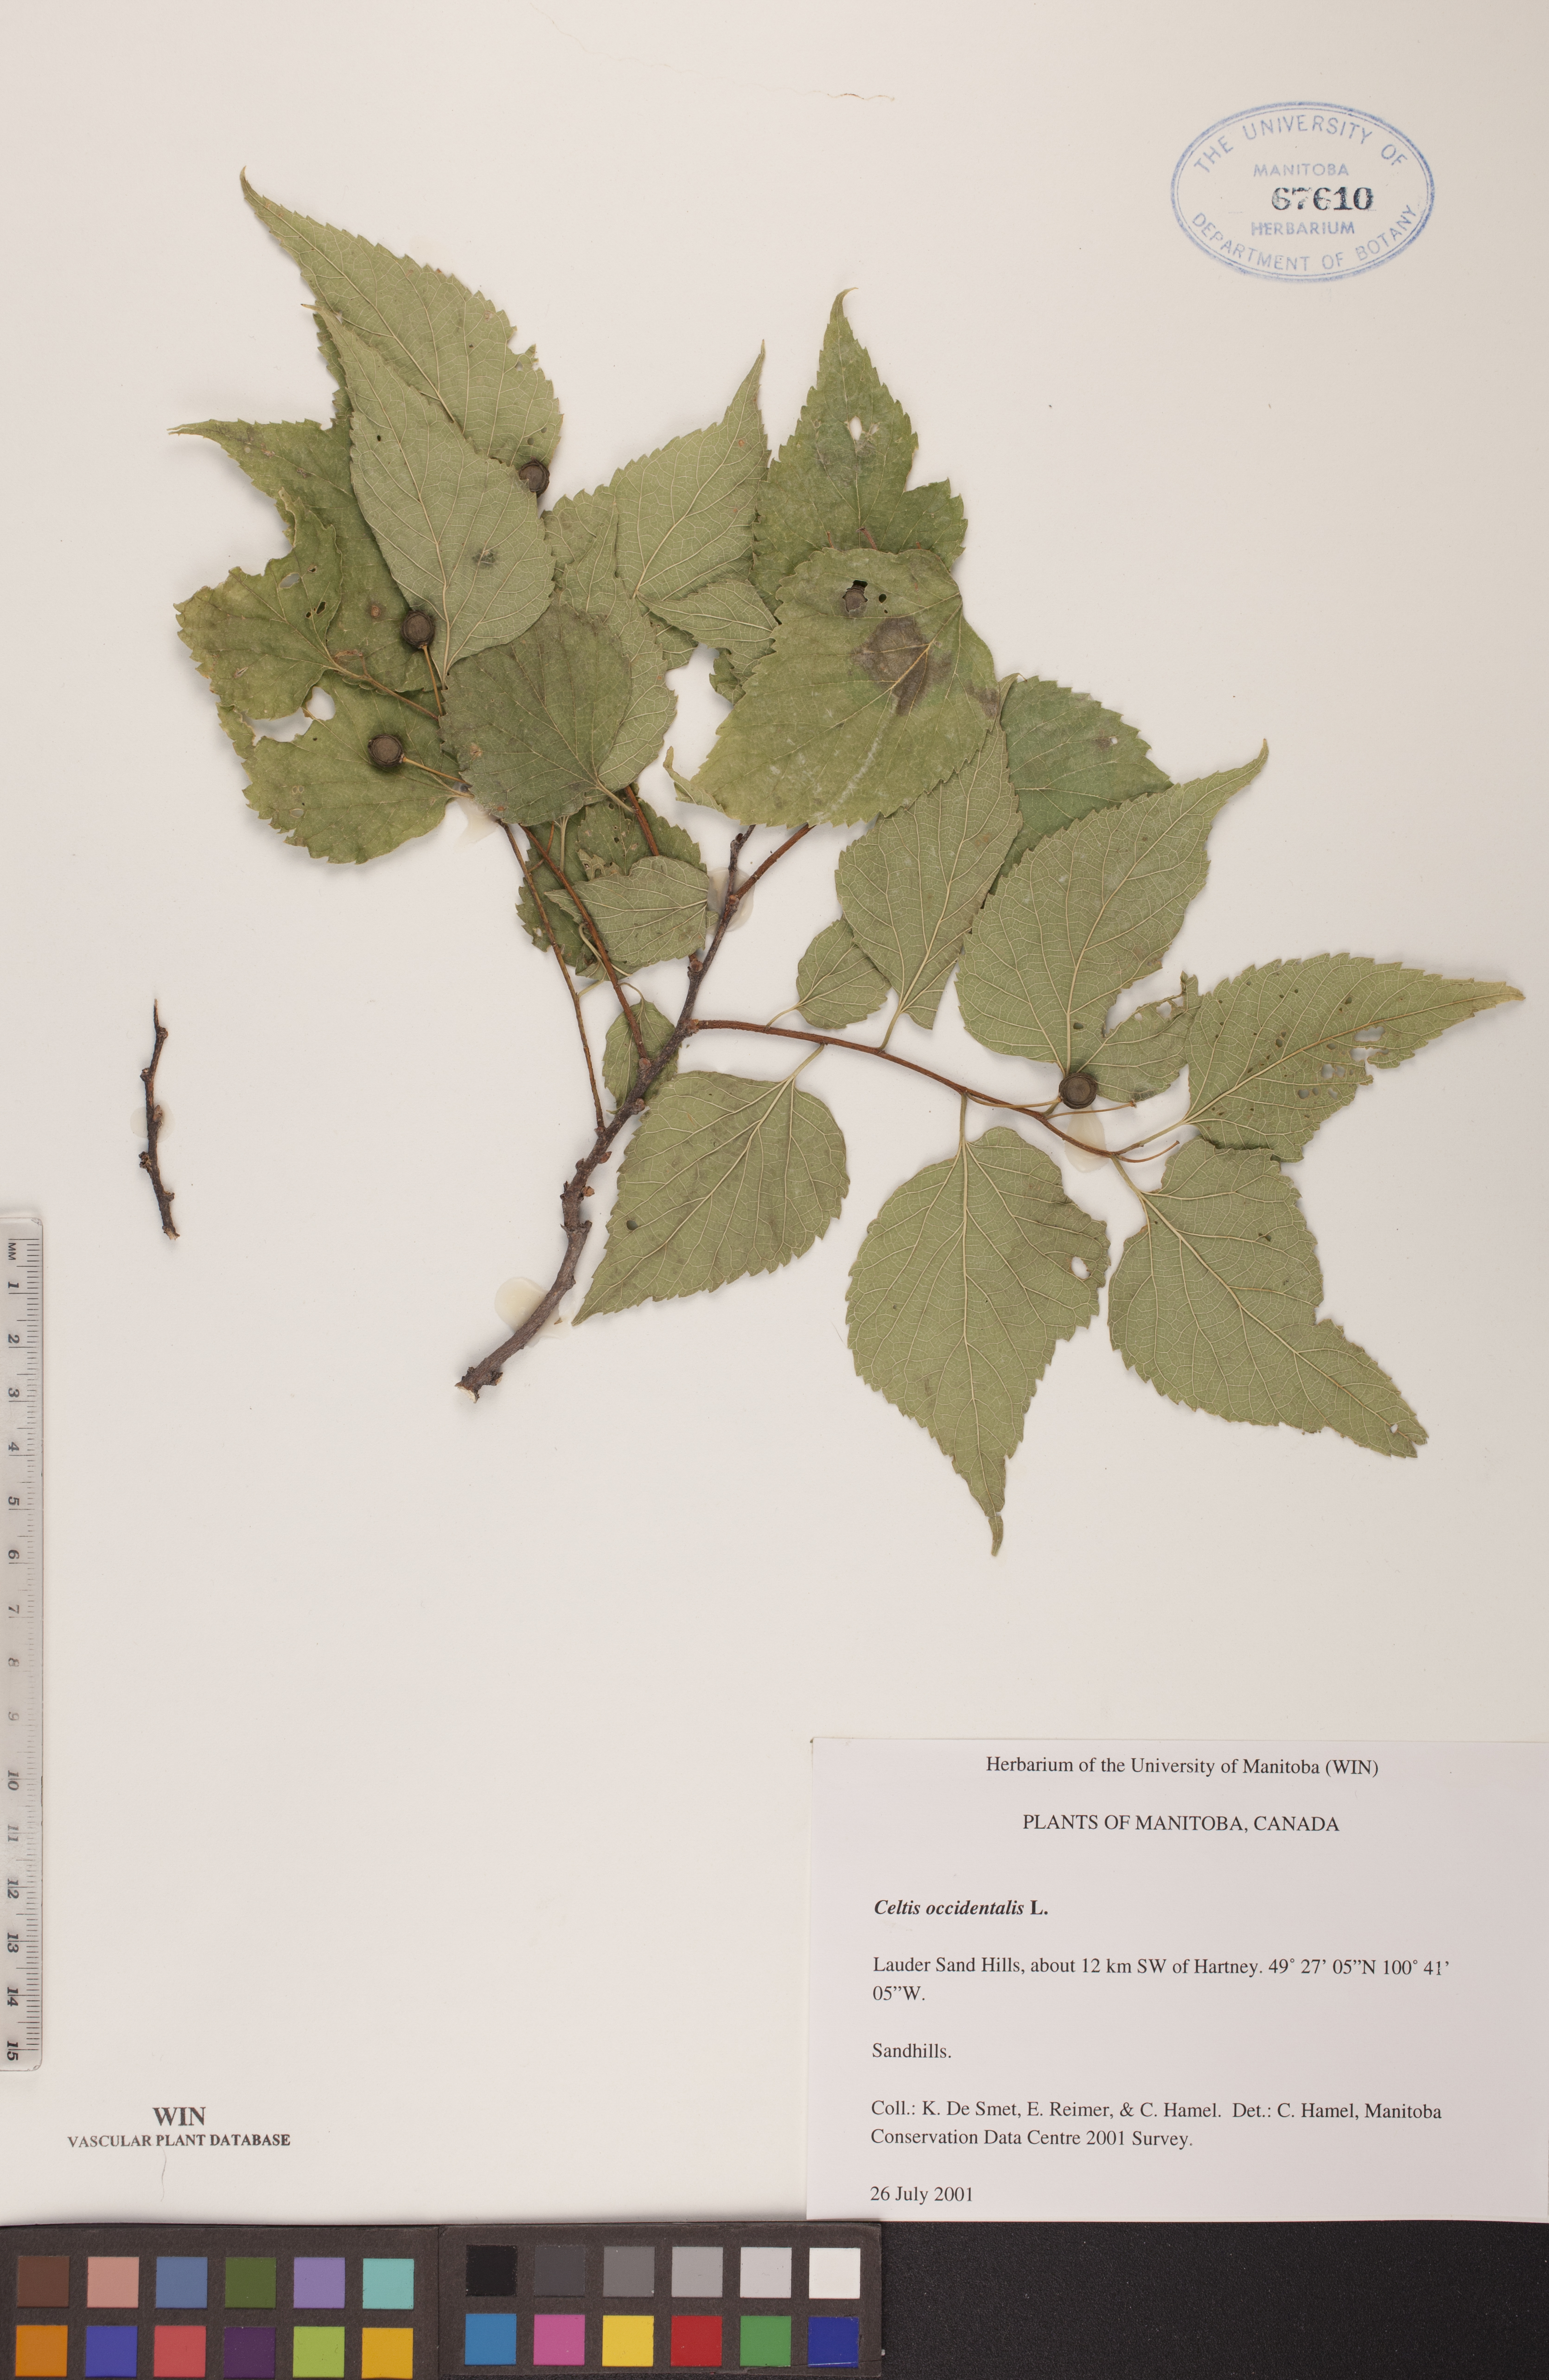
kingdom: Plantae
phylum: Tracheophyta
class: Magnoliopsida
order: Rosales
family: Cannabaceae
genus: Celtis
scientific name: Celtis occidentalis
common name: Common hackberry
